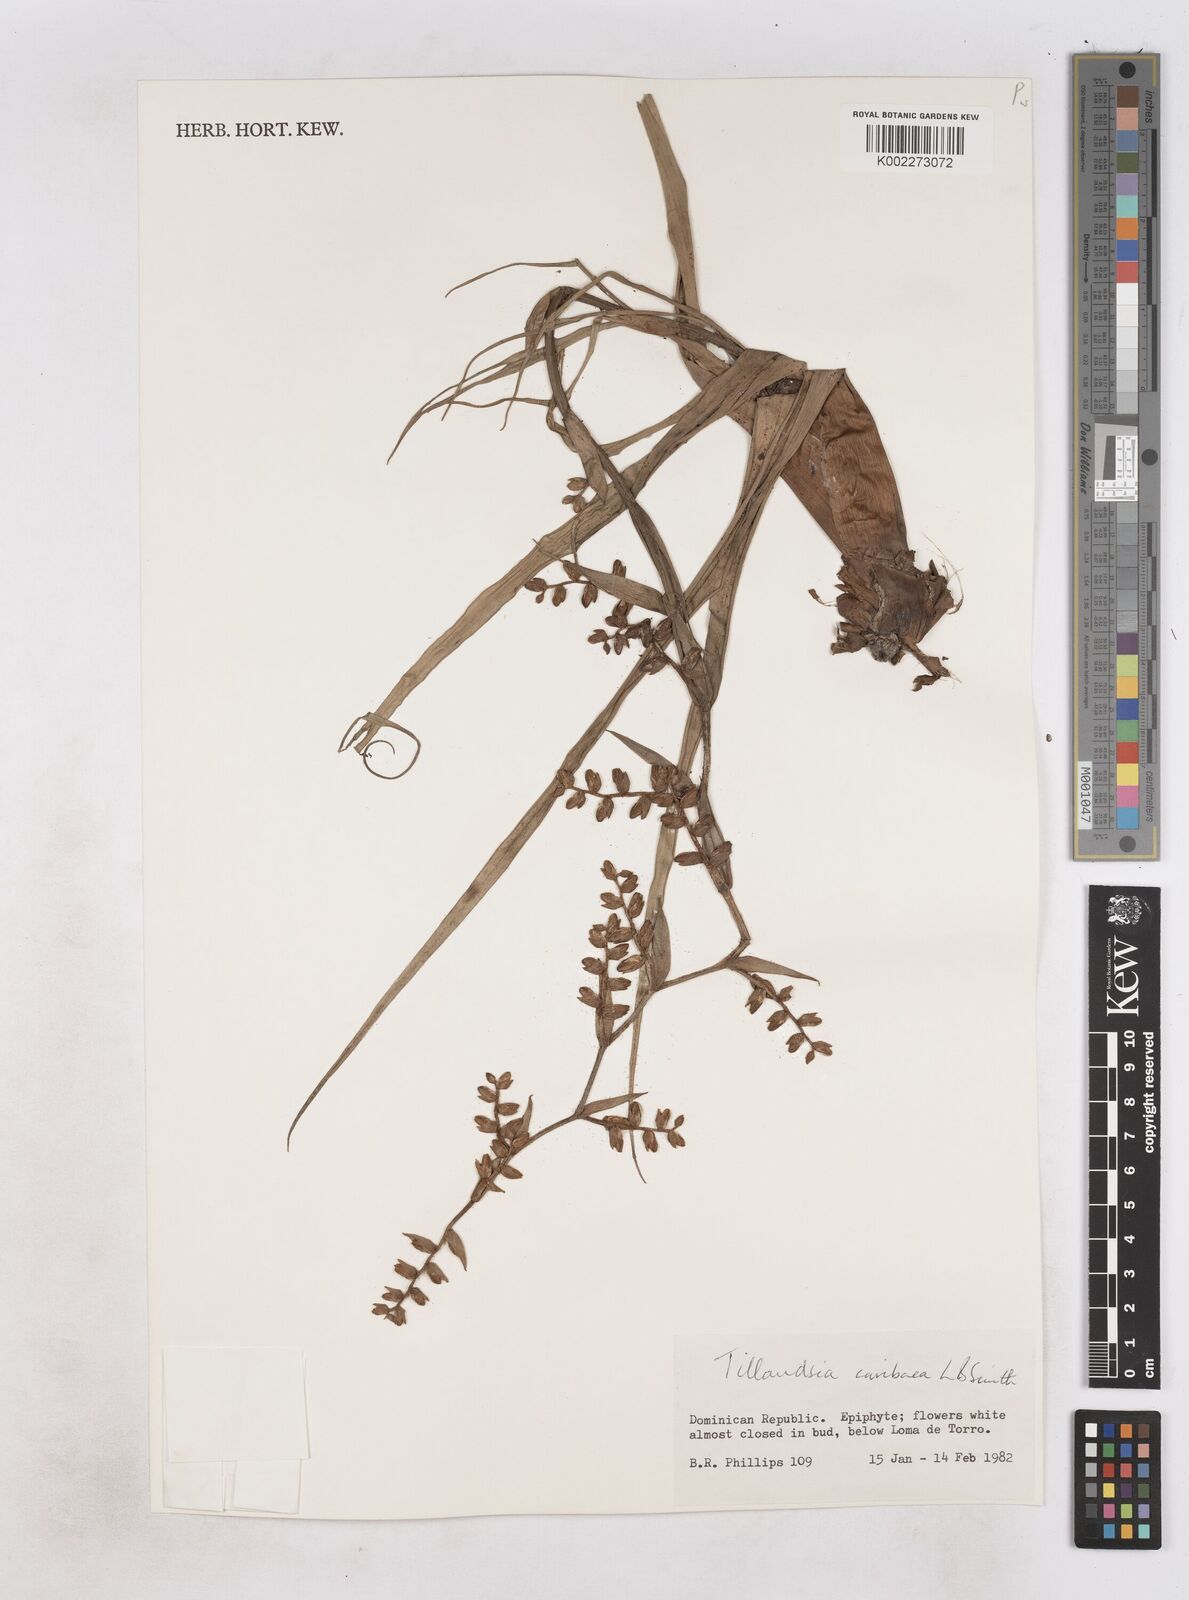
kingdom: Plantae
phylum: Tracheophyta
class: Liliopsida
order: Poales
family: Bromeliaceae
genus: Racinaea
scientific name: Racinaea tetrantha
